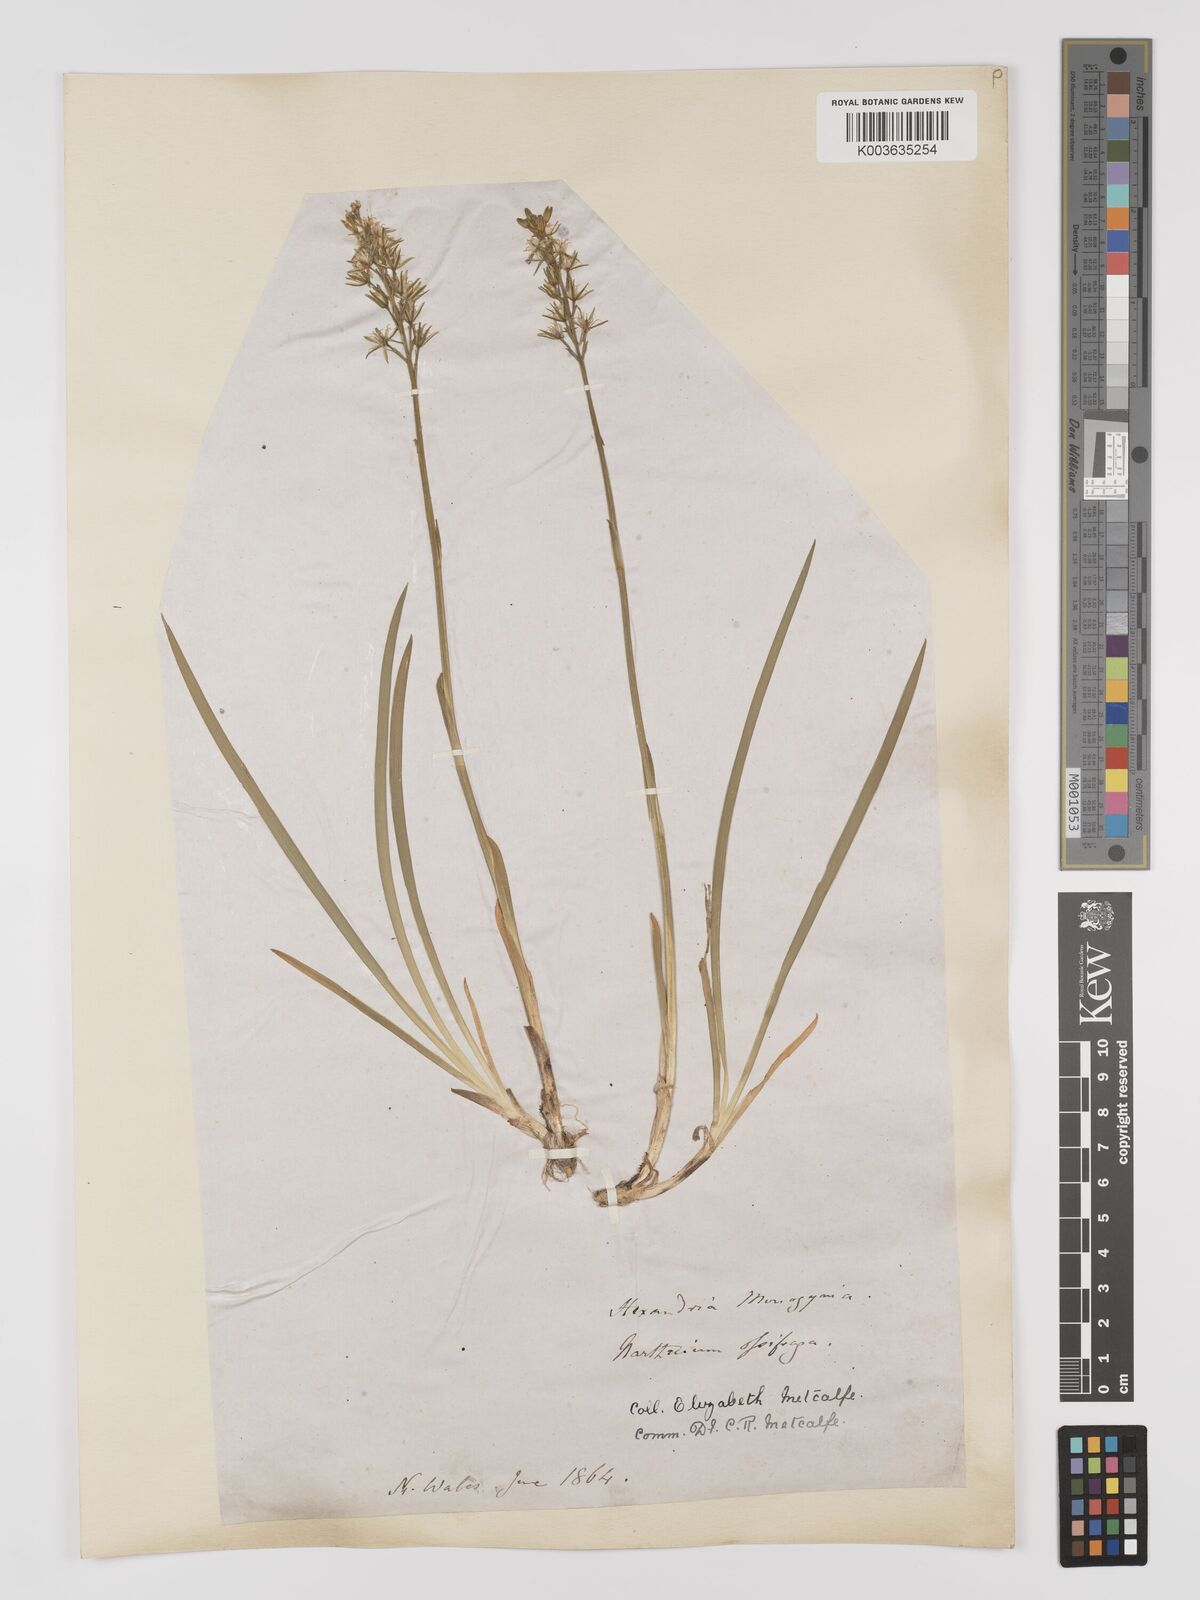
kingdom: Plantae
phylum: Tracheophyta
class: Liliopsida
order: Dioscoreales
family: Nartheciaceae
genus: Narthecium
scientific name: Narthecium
